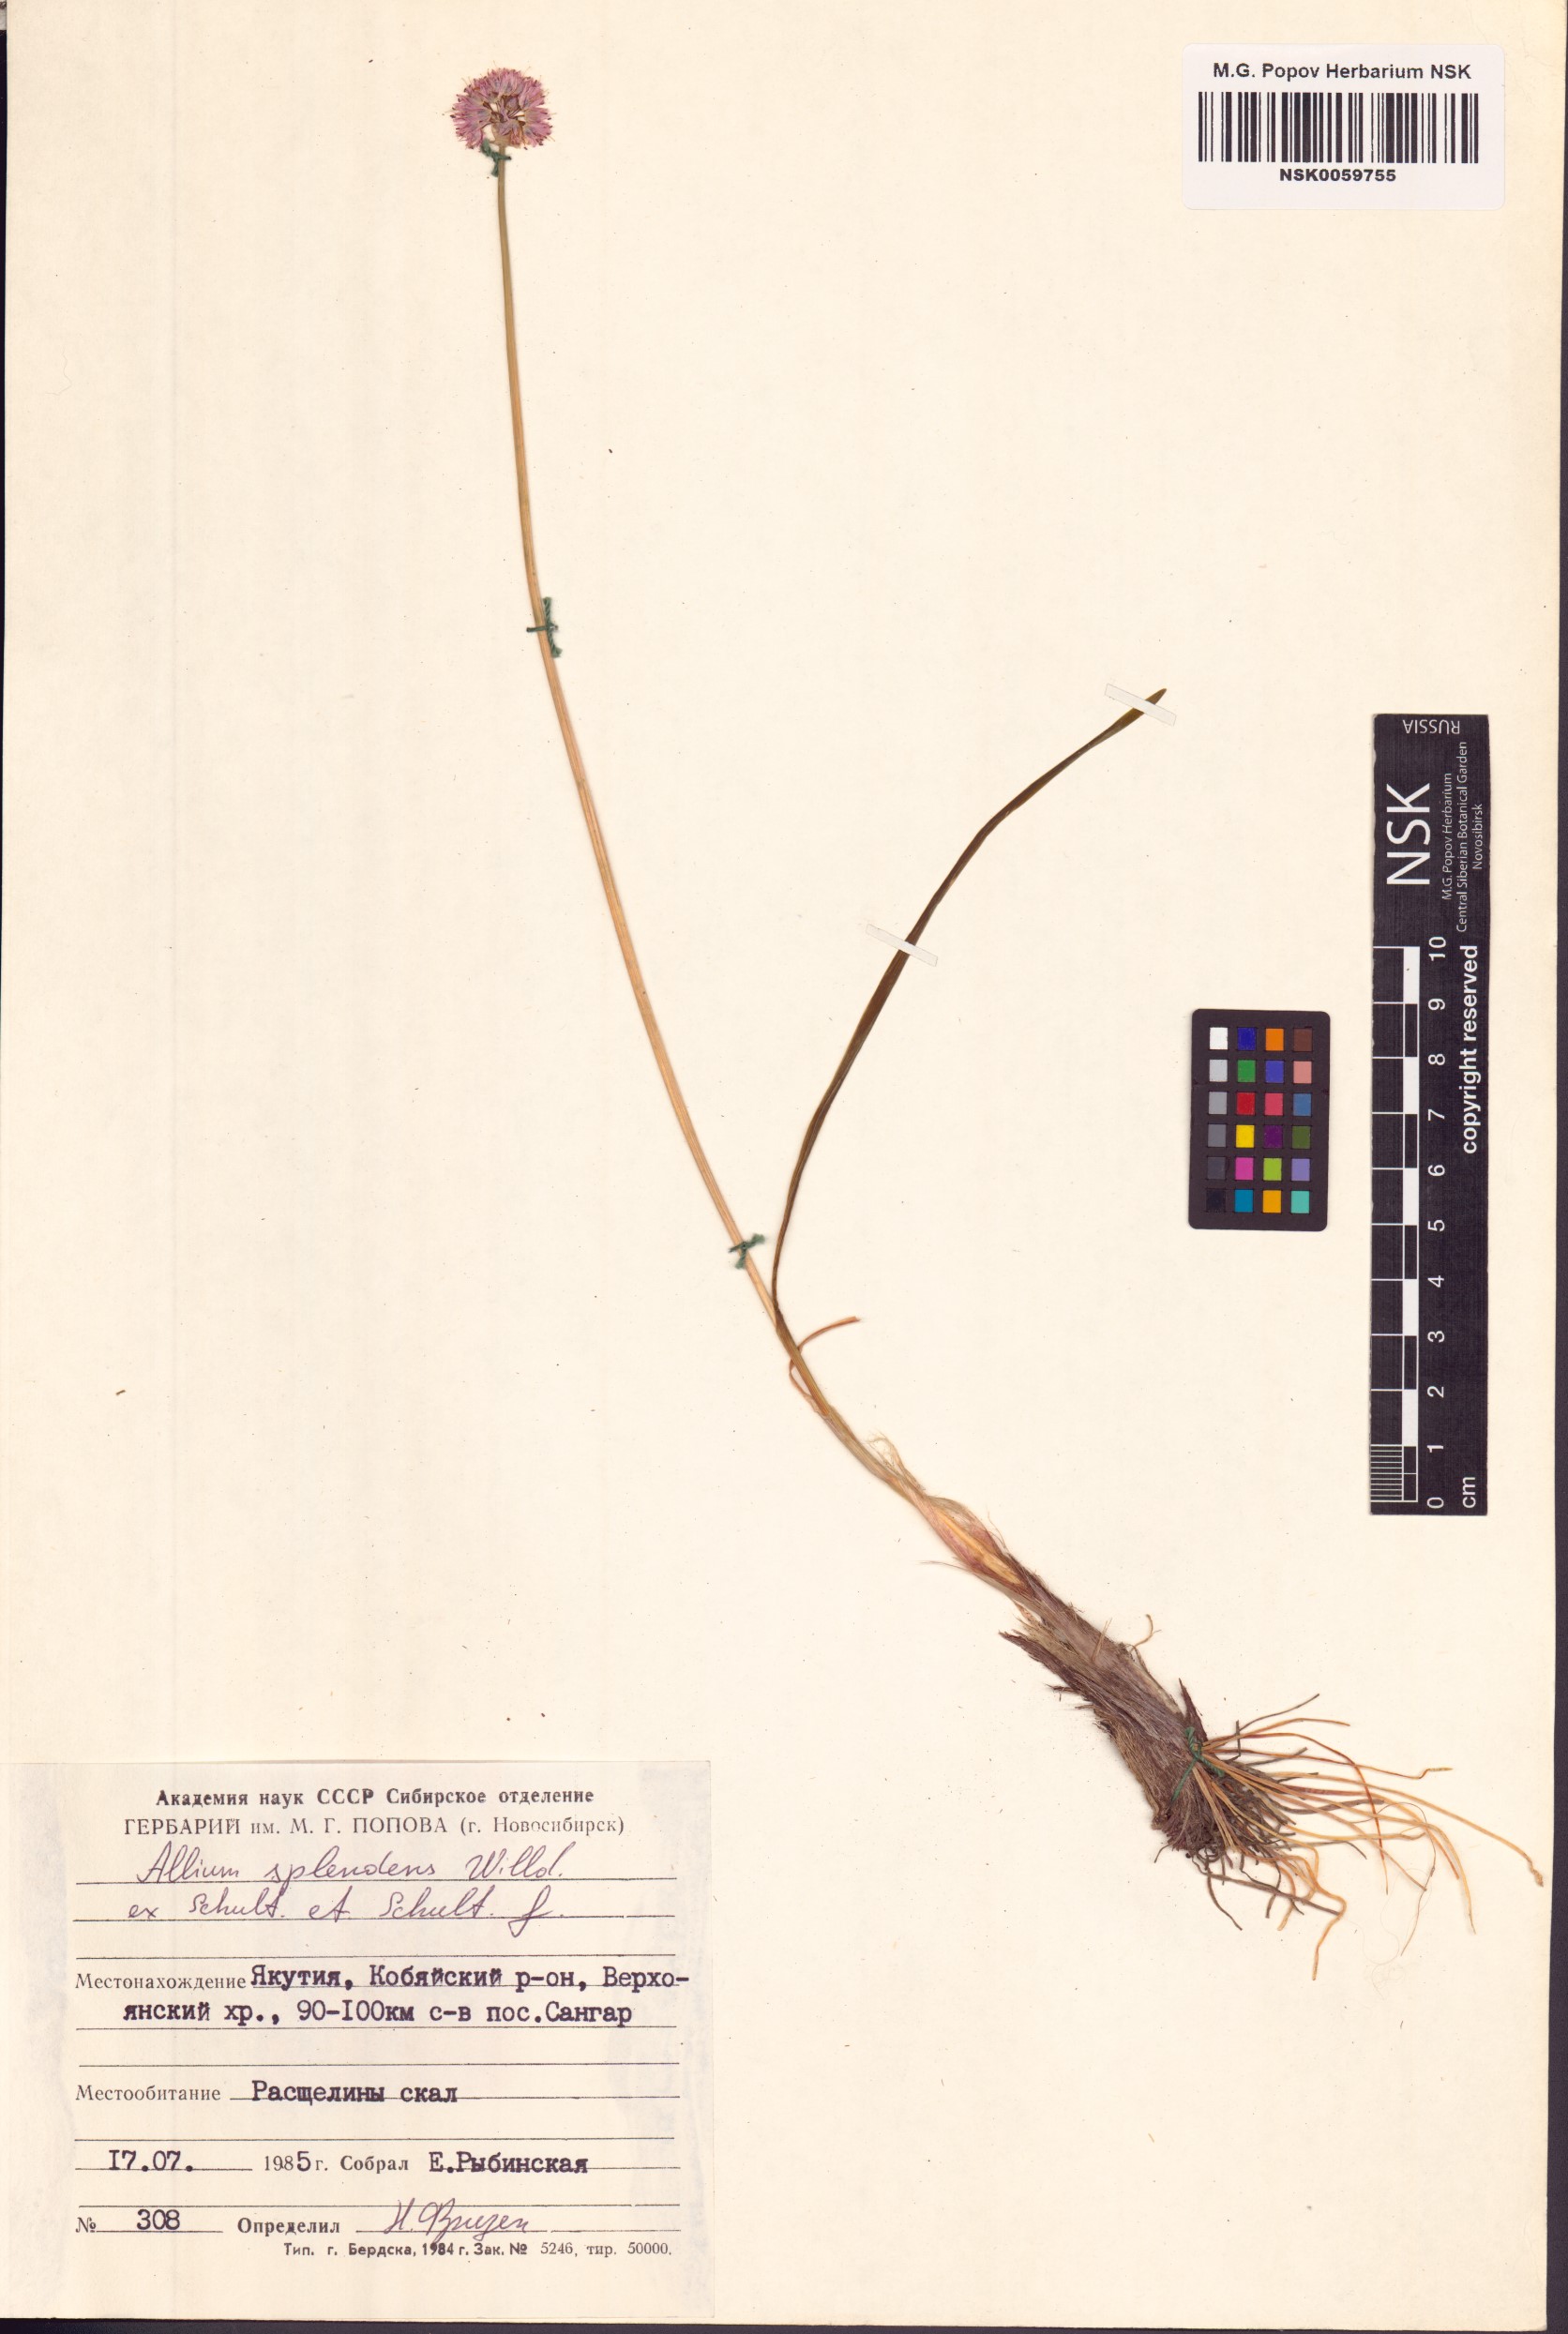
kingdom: Plantae
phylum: Tracheophyta
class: Liliopsida
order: Asparagales
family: Amaryllidaceae
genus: Allium
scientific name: Allium splendens
